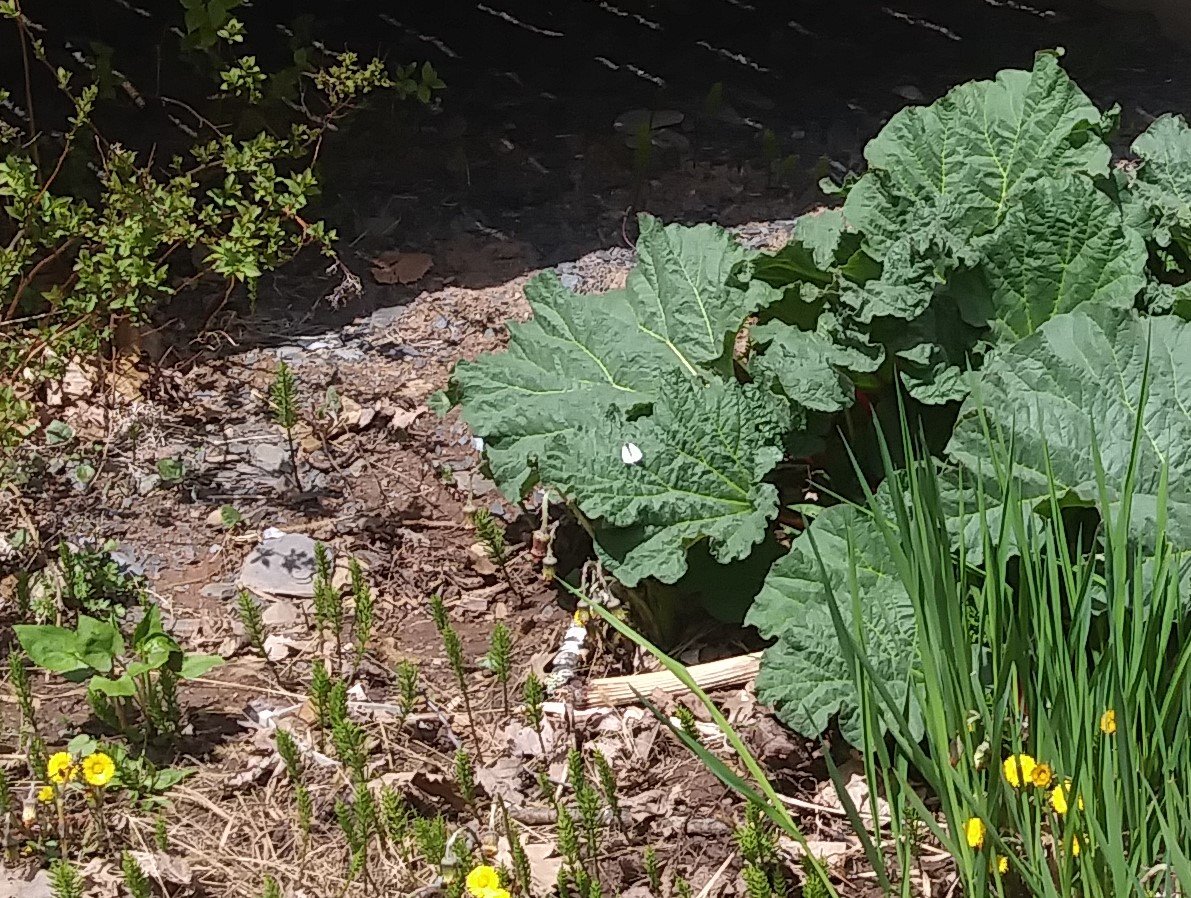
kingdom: Animalia
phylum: Arthropoda
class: Insecta
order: Lepidoptera
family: Pieridae
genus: Pieris
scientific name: Pieris rapae
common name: Cabbage White
